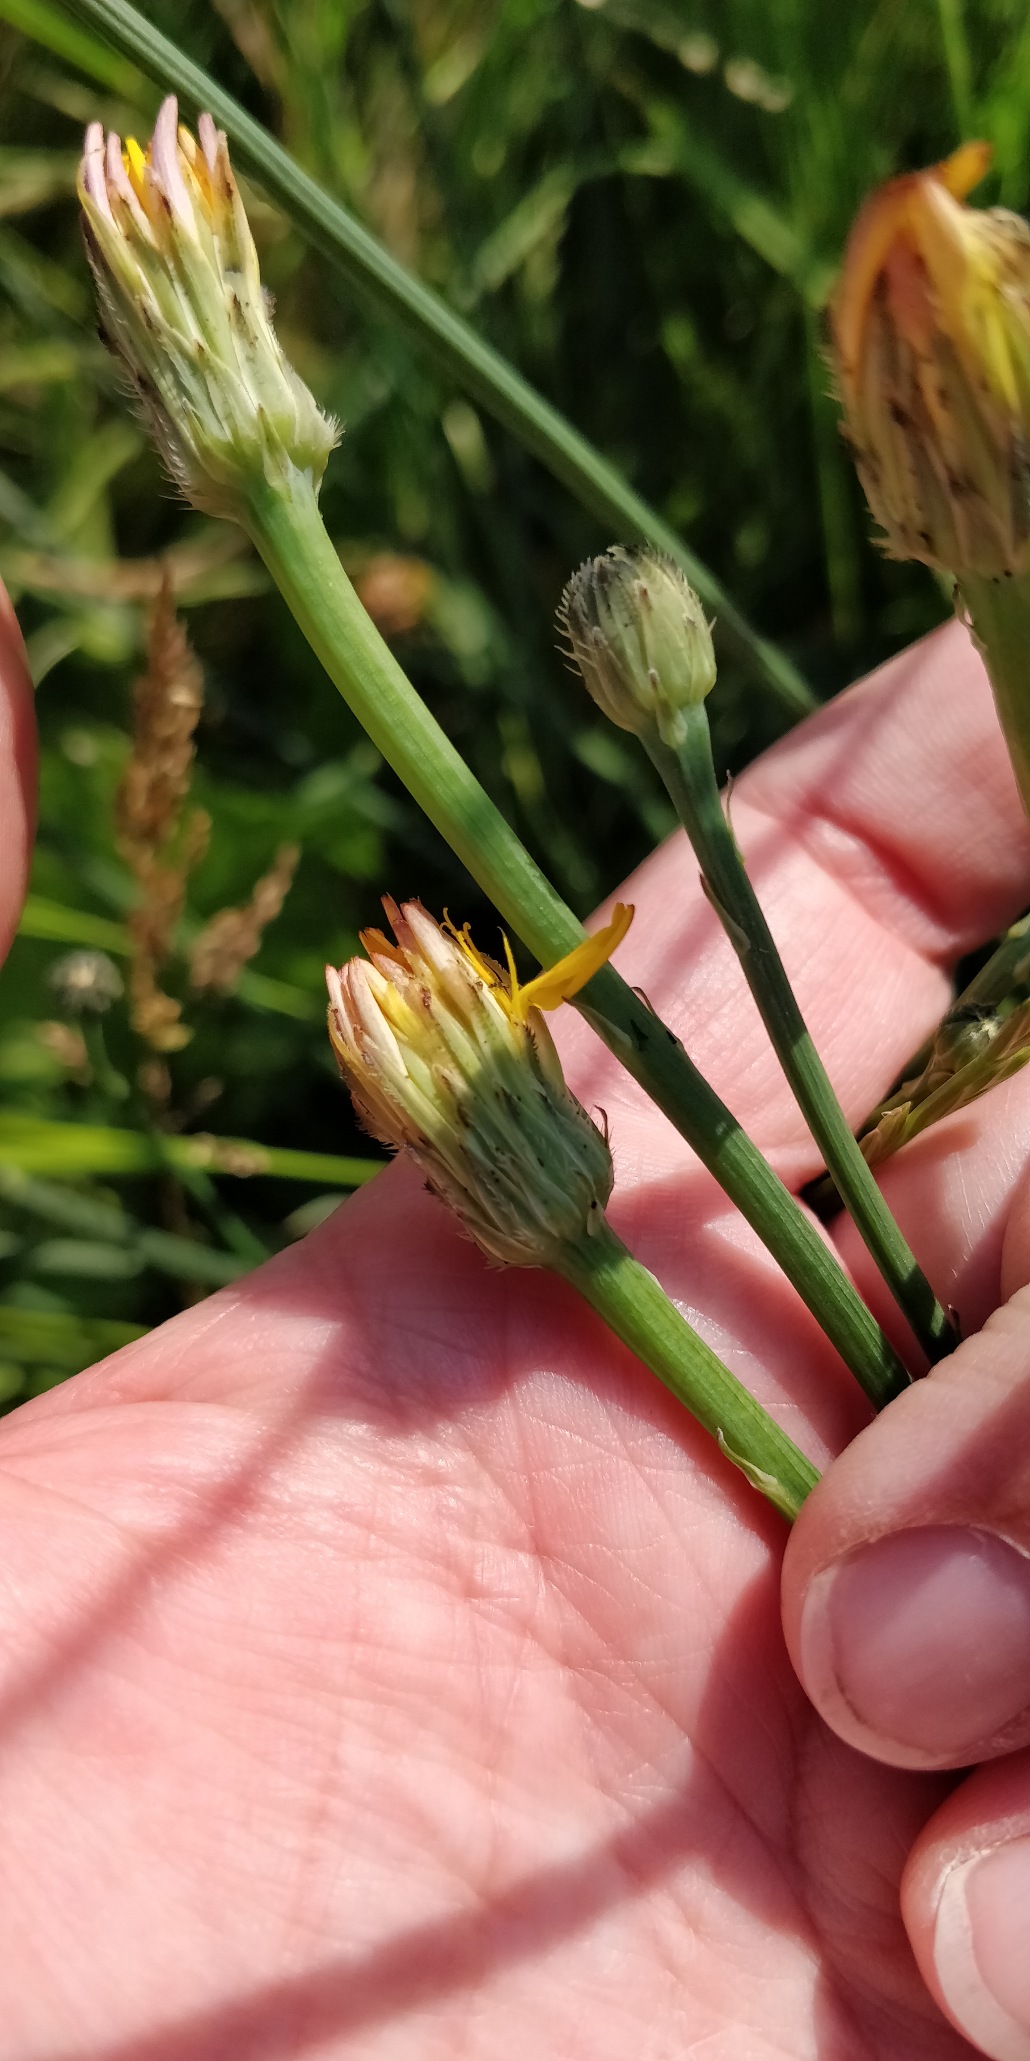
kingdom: Plantae
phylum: Tracheophyta
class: Magnoliopsida
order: Asterales
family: Asteraceae
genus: Hypochaeris
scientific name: Hypochaeris radicata
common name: Almindelig kongepen
